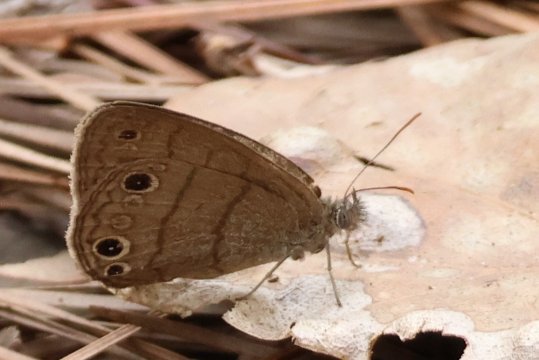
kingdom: Animalia
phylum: Arthropoda
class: Insecta
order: Lepidoptera
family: Nymphalidae
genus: Hermeuptychia
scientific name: Hermeuptychia intricata
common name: Intricate Satyr
